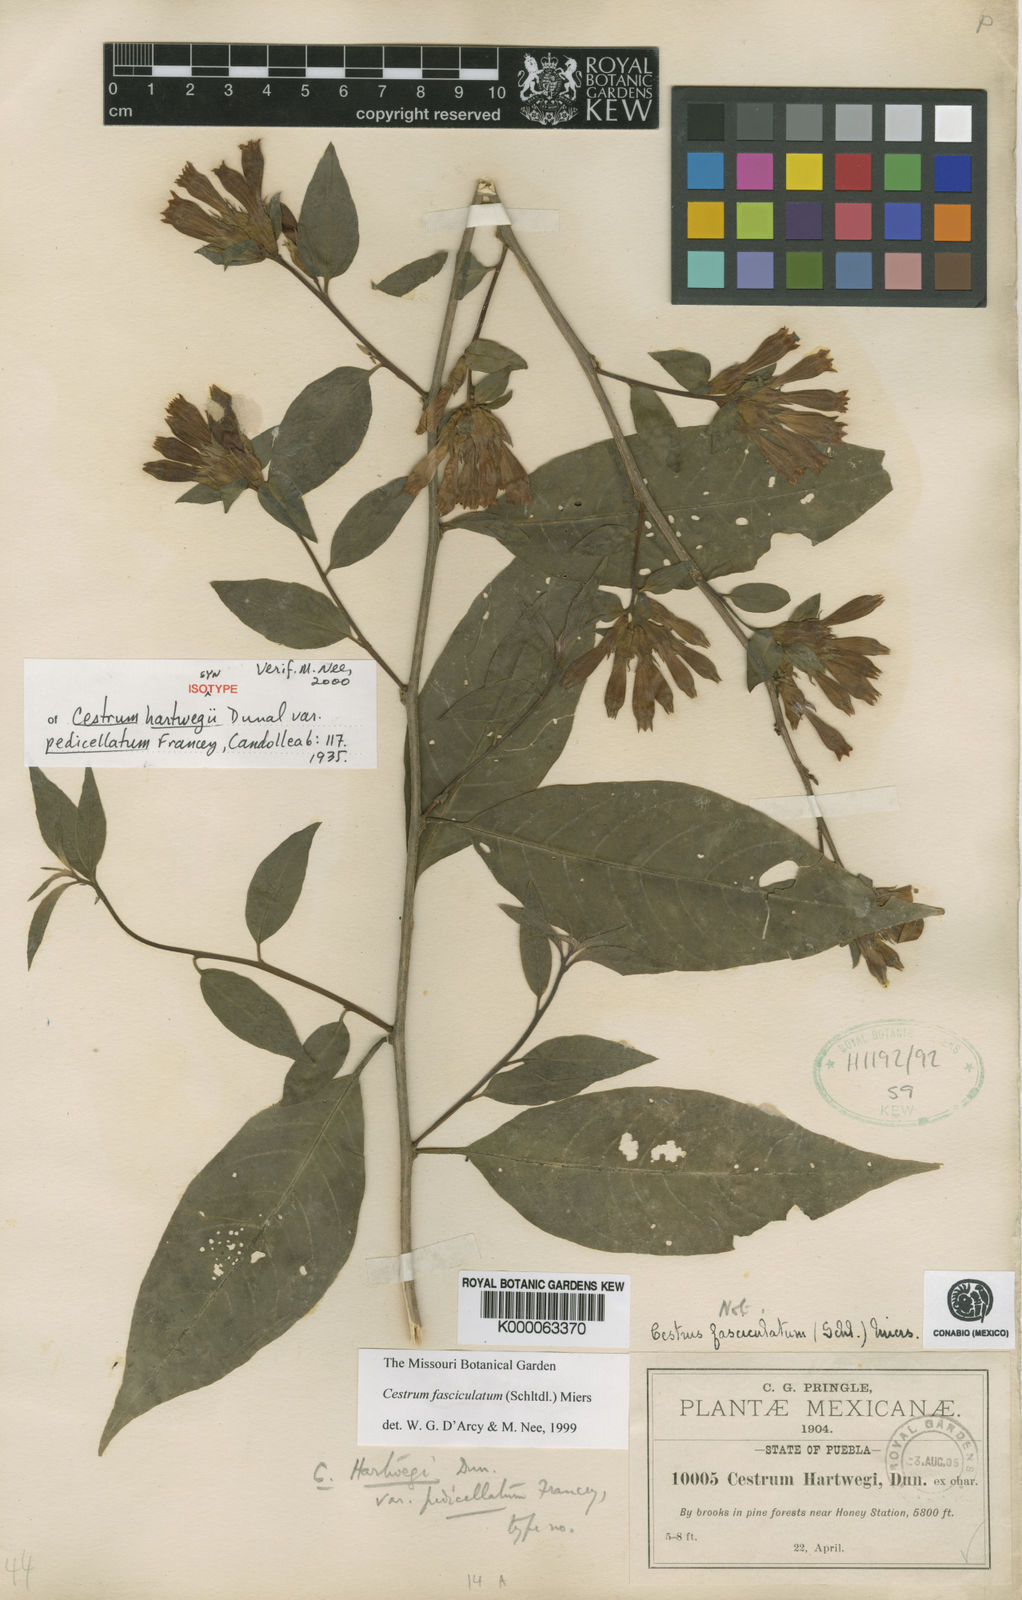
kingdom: Plantae
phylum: Tracheophyta
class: Magnoliopsida
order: Solanales
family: Solanaceae
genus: Cestrum
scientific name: Cestrum hartwegii
